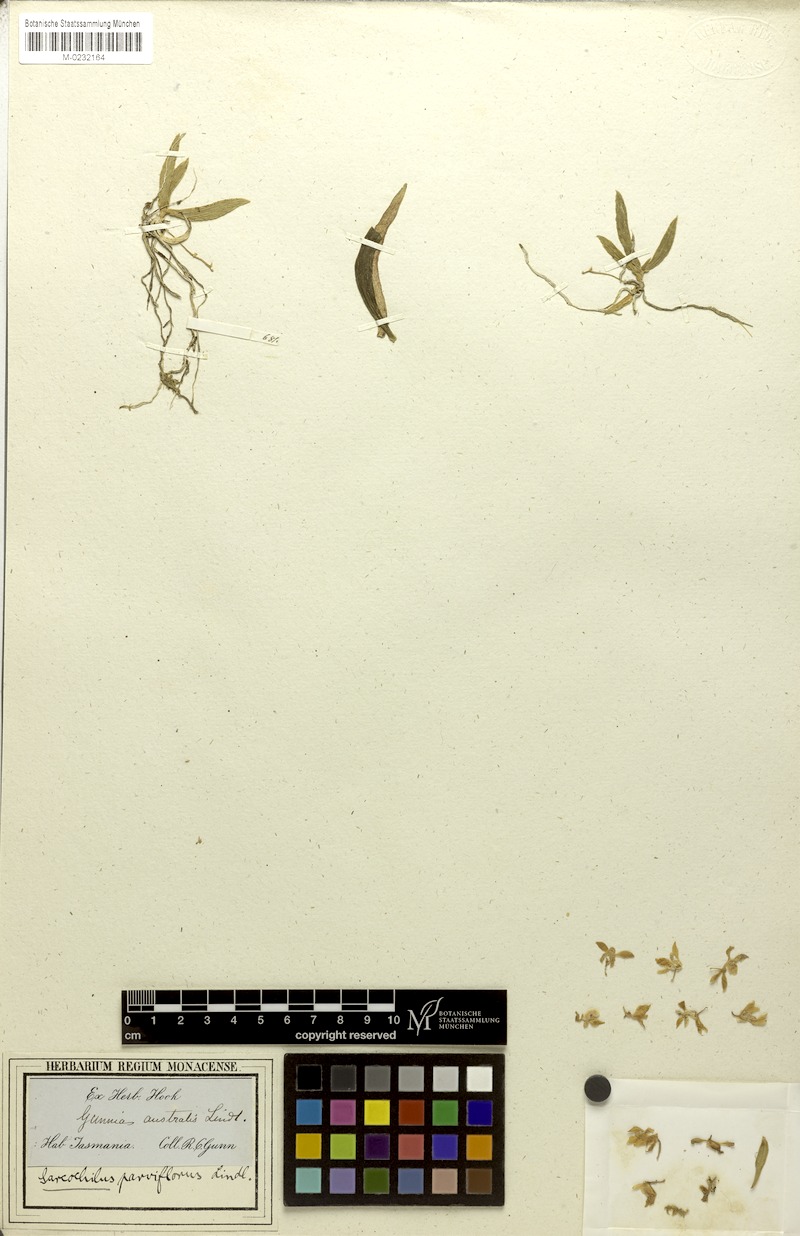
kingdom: Plantae
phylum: Tracheophyta
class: Liliopsida
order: Asparagales
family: Orchidaceae
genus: Sarcochilus
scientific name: Sarcochilus australis
